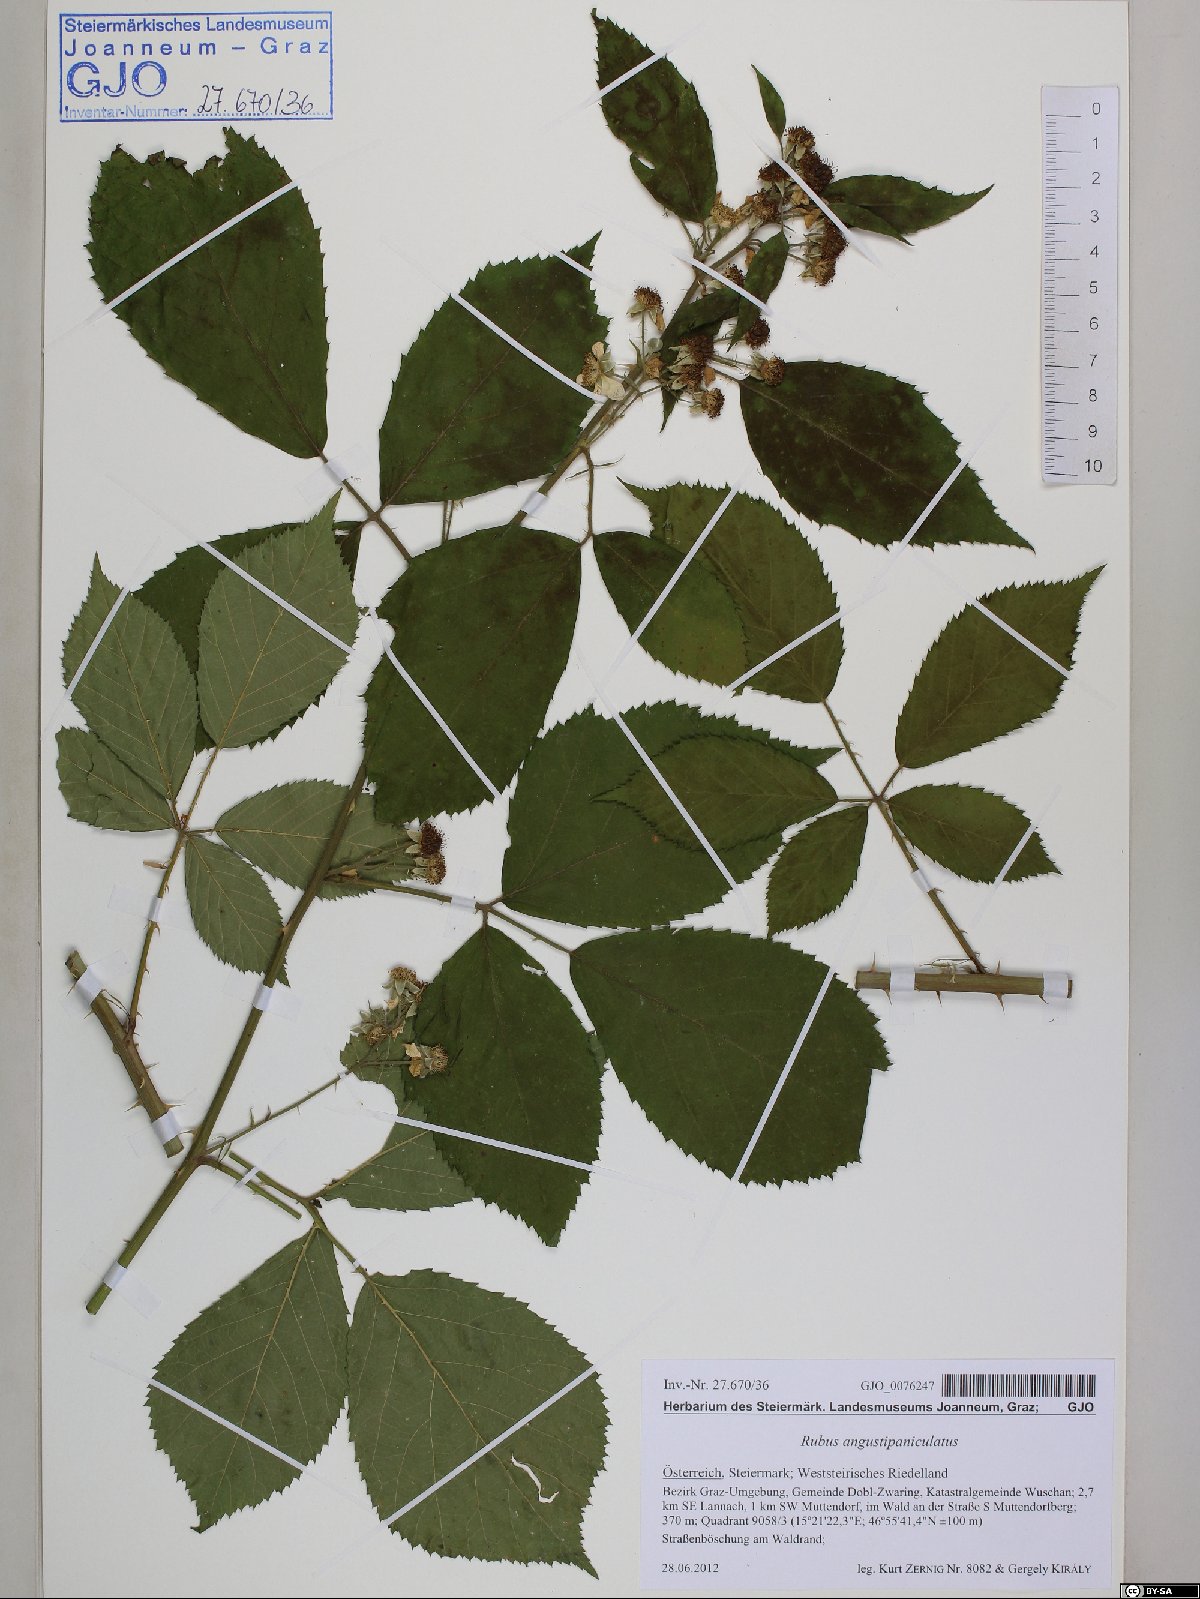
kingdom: Plantae
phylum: Tracheophyta
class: Magnoliopsida
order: Rosales
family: Rosaceae
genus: Rubus
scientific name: Rubus angustipaniculatus
